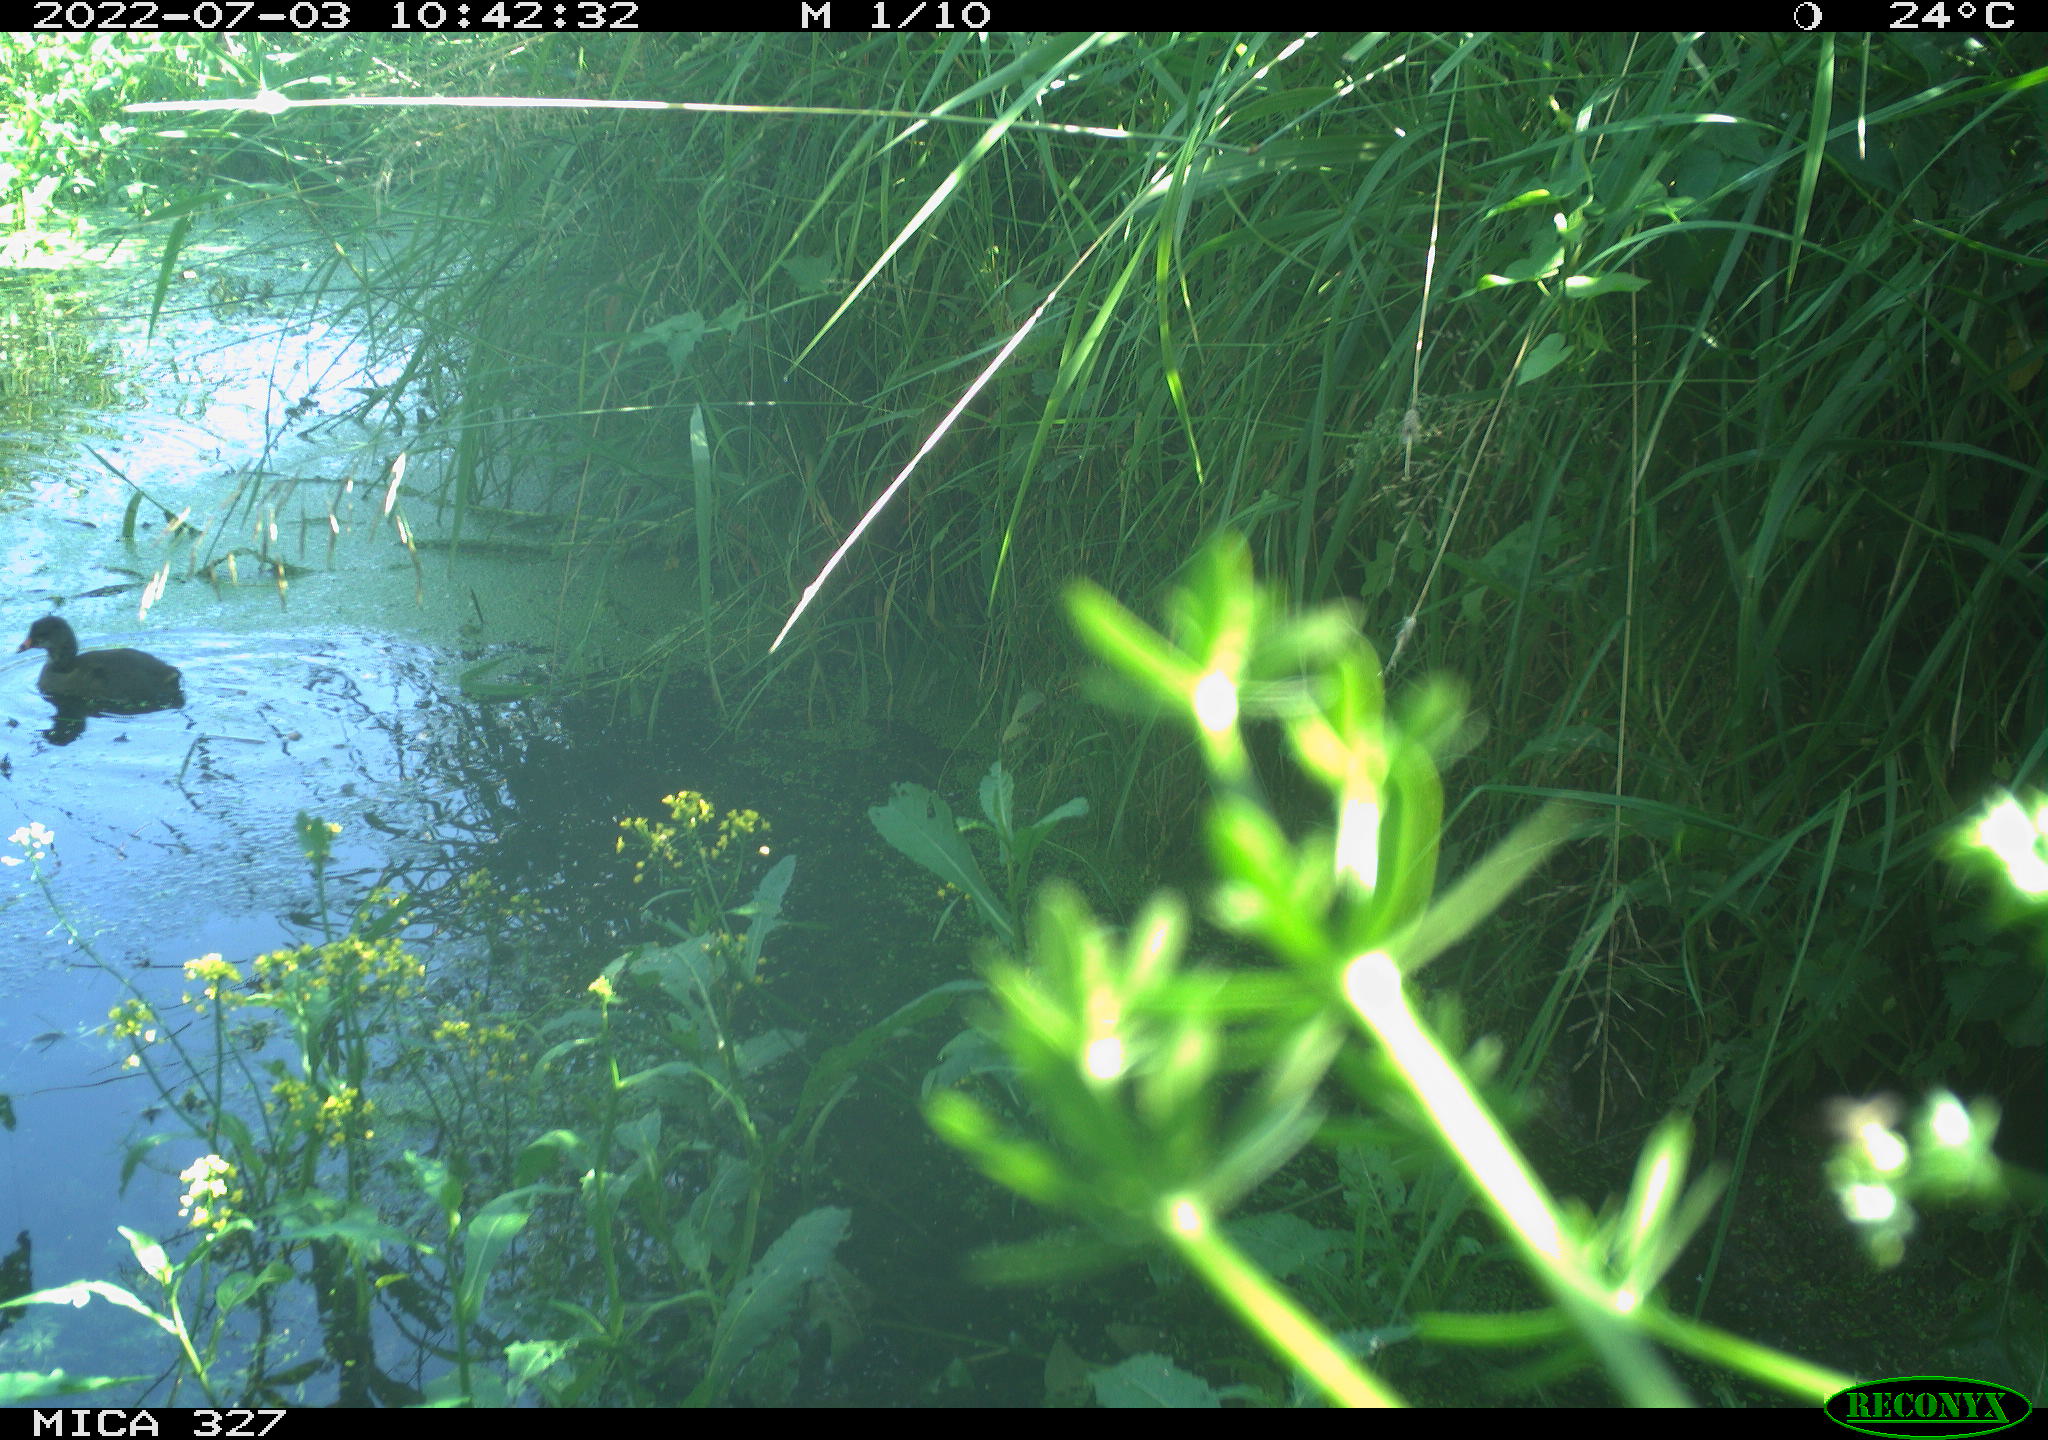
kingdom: Animalia
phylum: Chordata
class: Aves
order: Gruiformes
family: Rallidae
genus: Gallinula
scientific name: Gallinula chloropus
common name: Common moorhen
